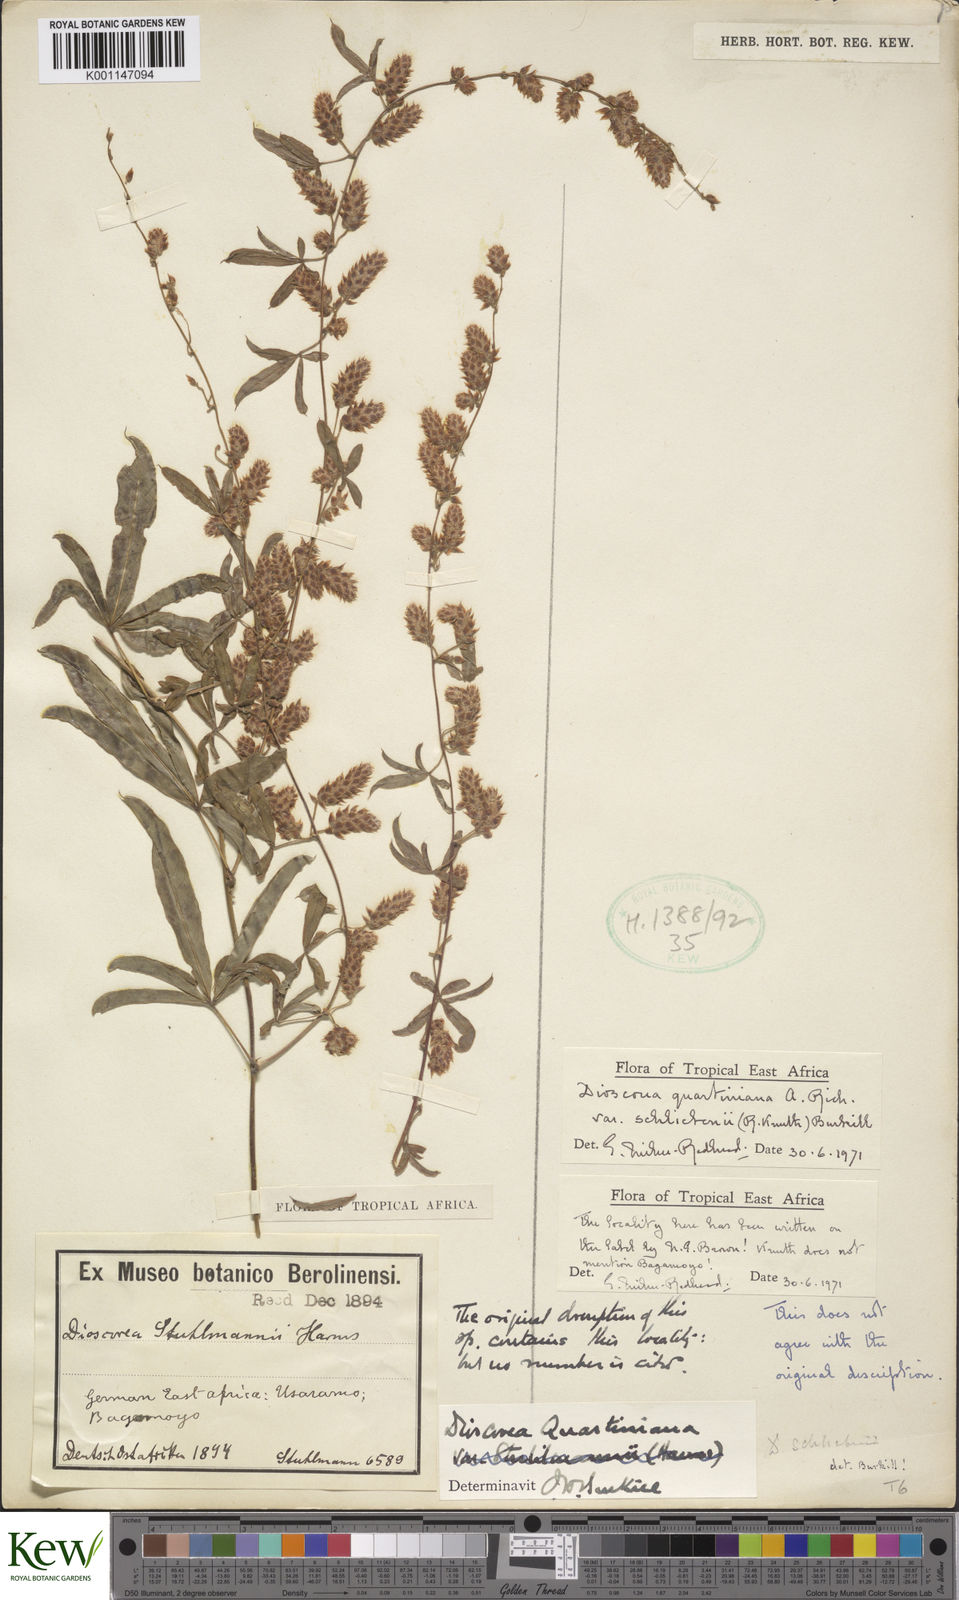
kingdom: Plantae
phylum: Tracheophyta
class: Liliopsida
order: Dioscoreales
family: Dioscoreaceae
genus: Dioscorea
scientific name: Dioscorea quartiniana
